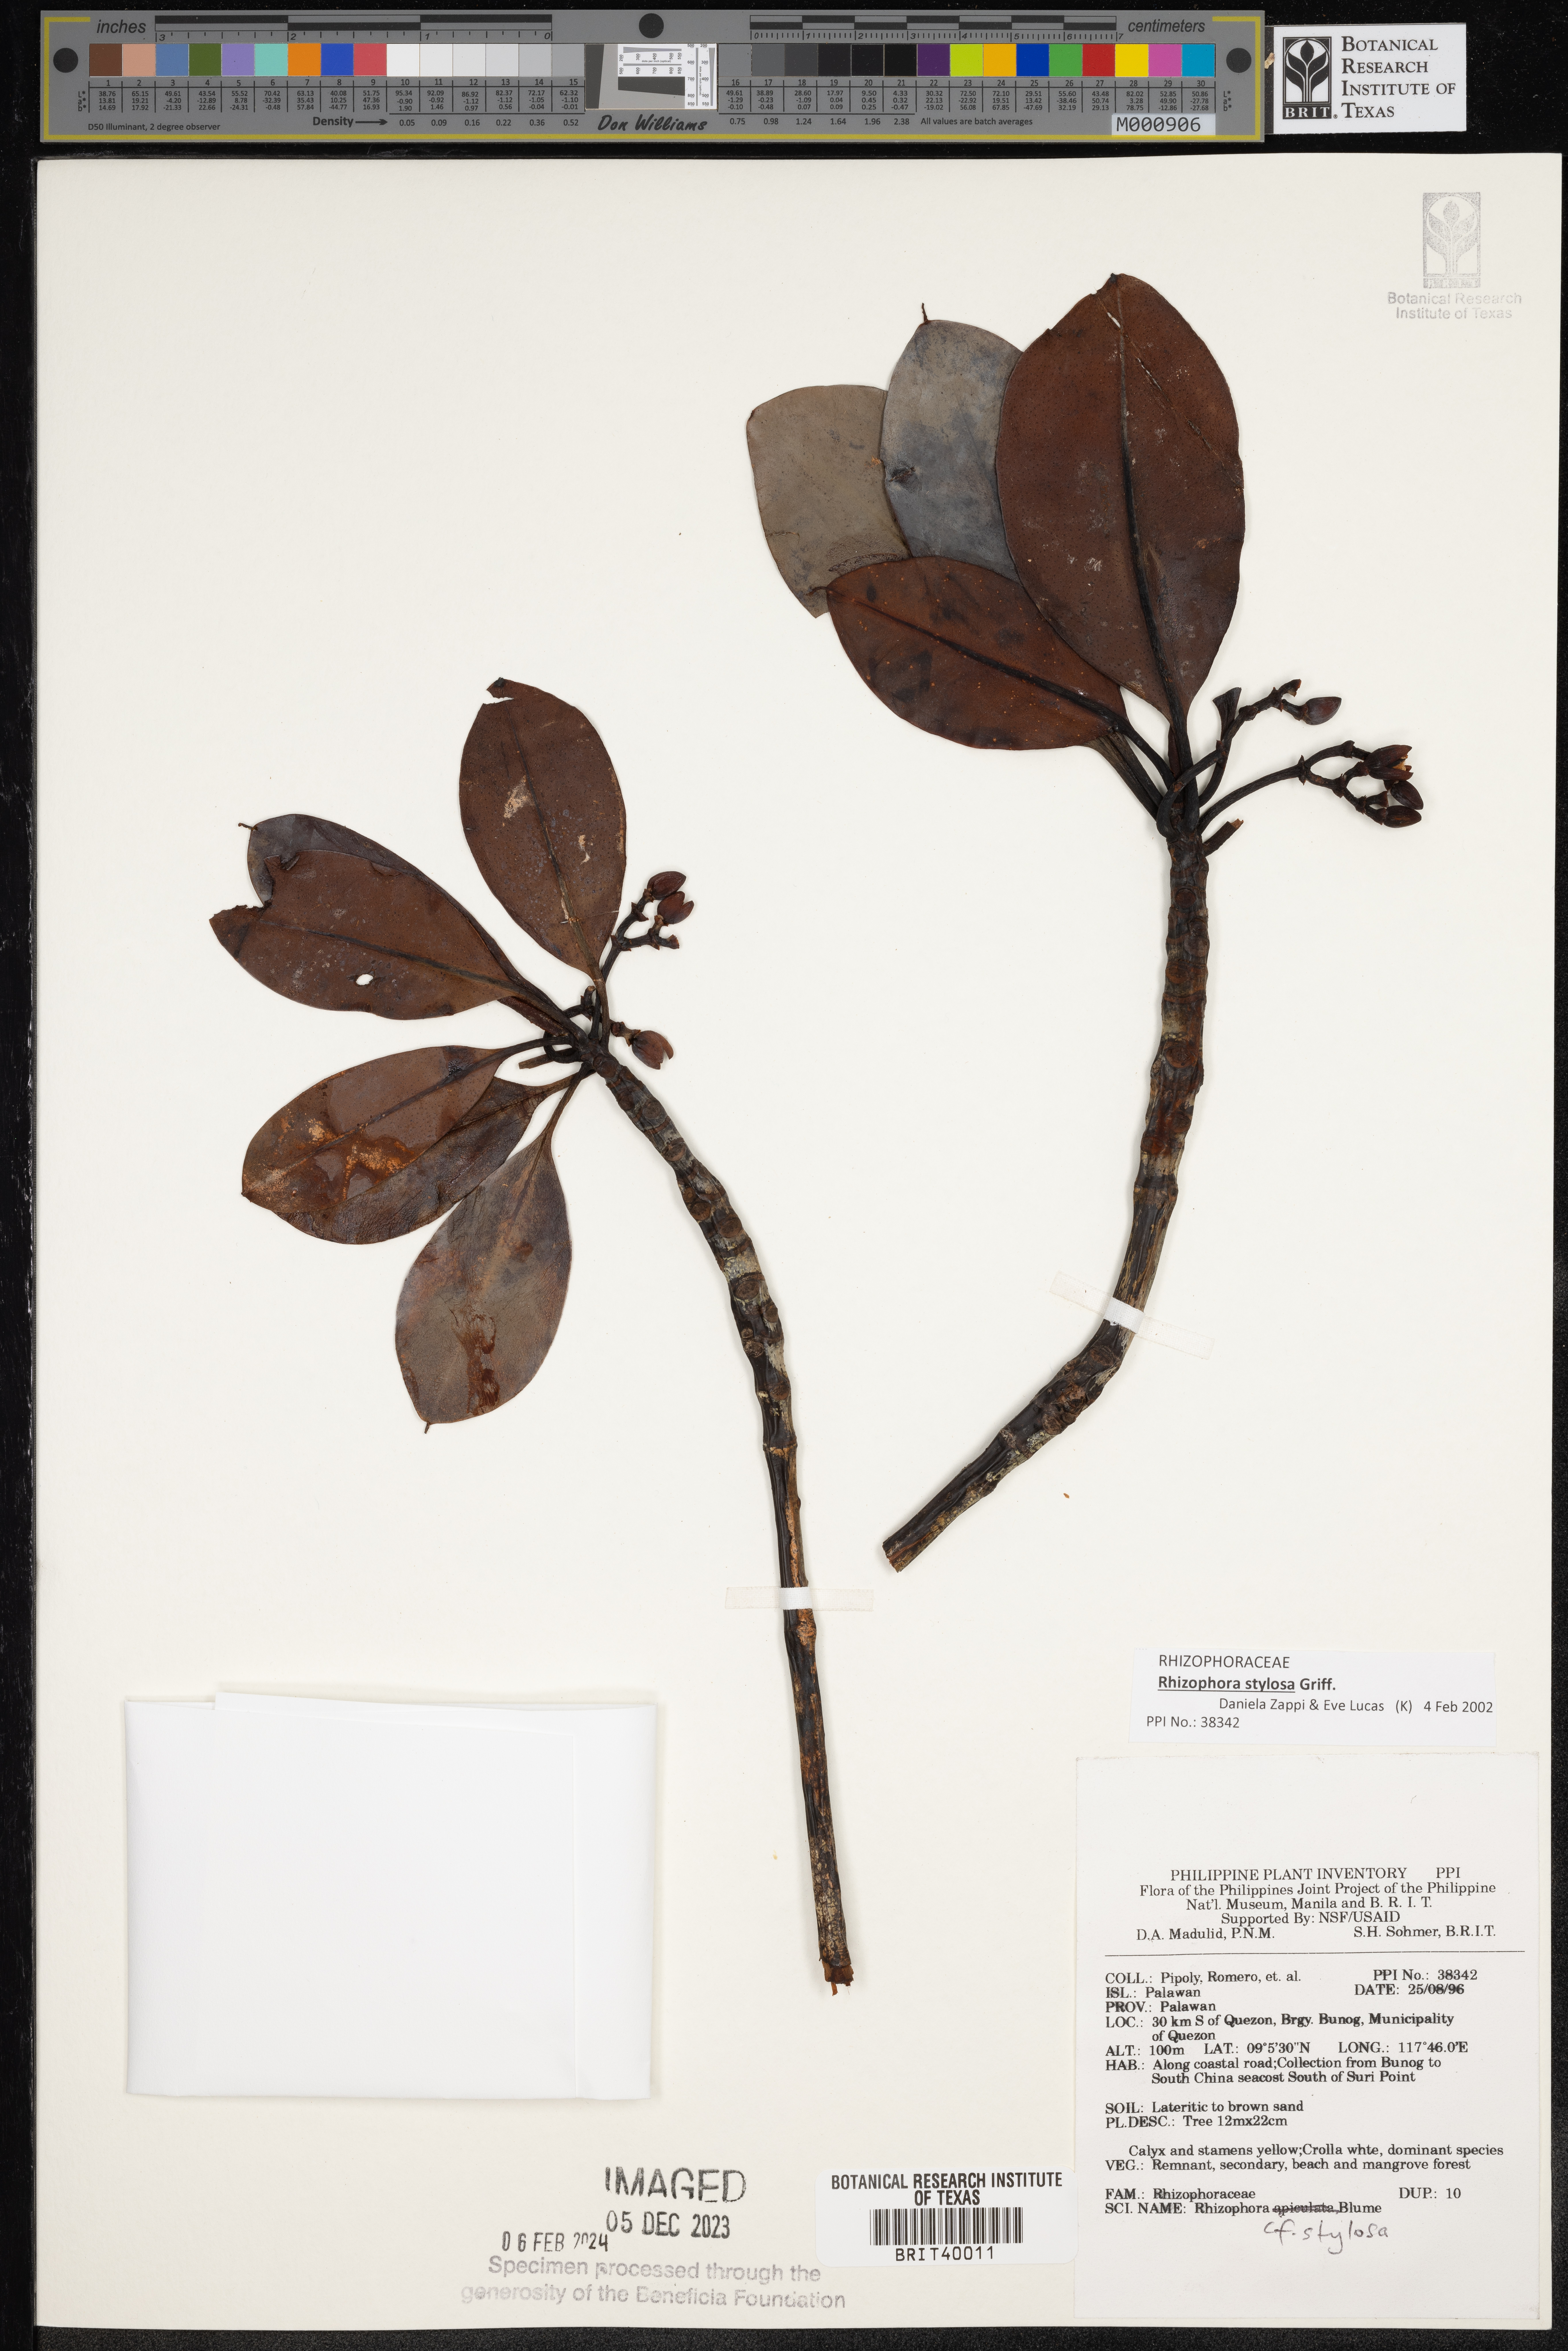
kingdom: Plantae
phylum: Tracheophyta
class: Magnoliopsida
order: Malpighiales
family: Rhizophoraceae
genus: Rhizophora
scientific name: Rhizophora stylosa
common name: Red mangrove
